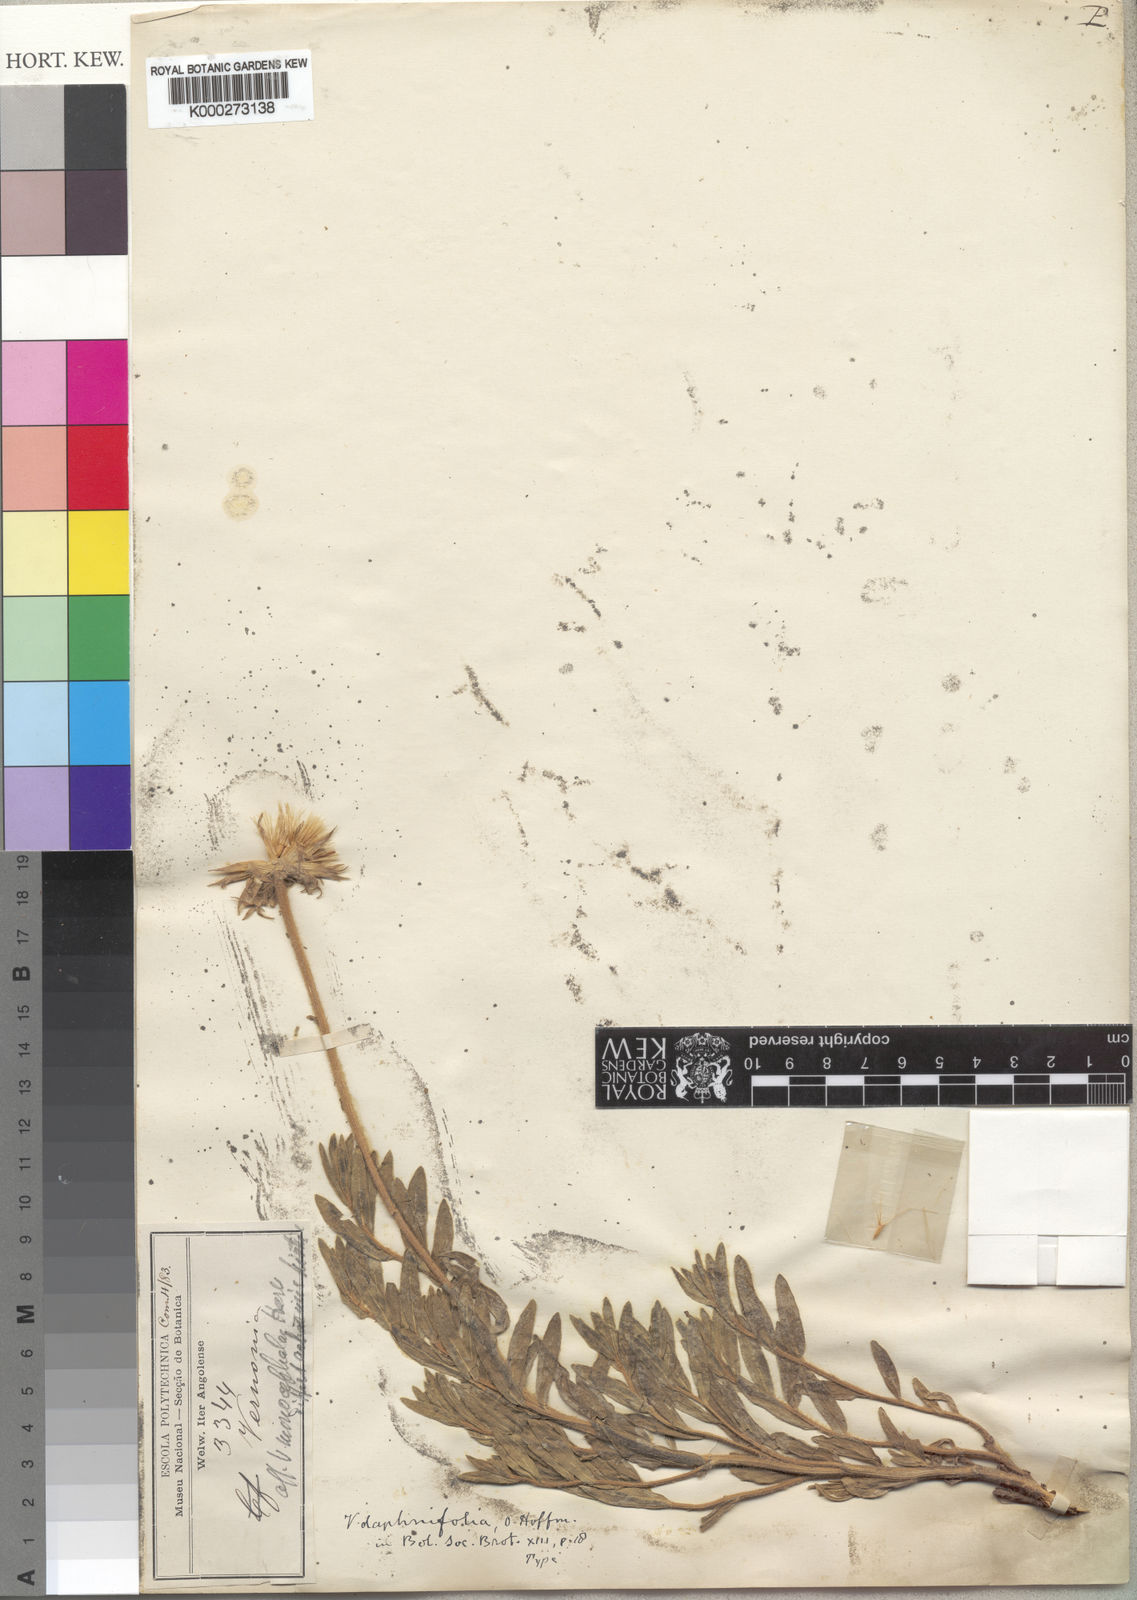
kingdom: Plantae
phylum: Tracheophyta
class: Magnoliopsida
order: Asterales
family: Asteraceae
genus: Vernonia
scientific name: Vernonia daphnifolia
